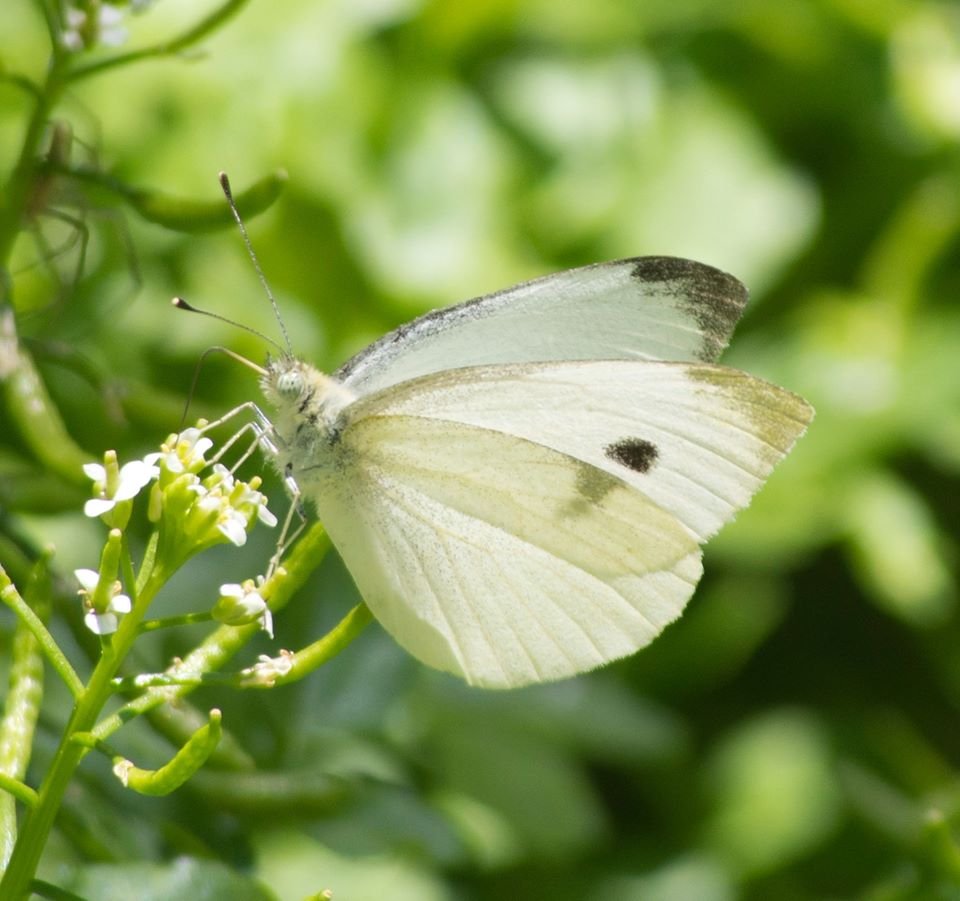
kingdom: Animalia
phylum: Arthropoda
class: Insecta
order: Lepidoptera
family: Pieridae
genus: Pieris
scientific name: Pieris rapae
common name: Cabbage White
